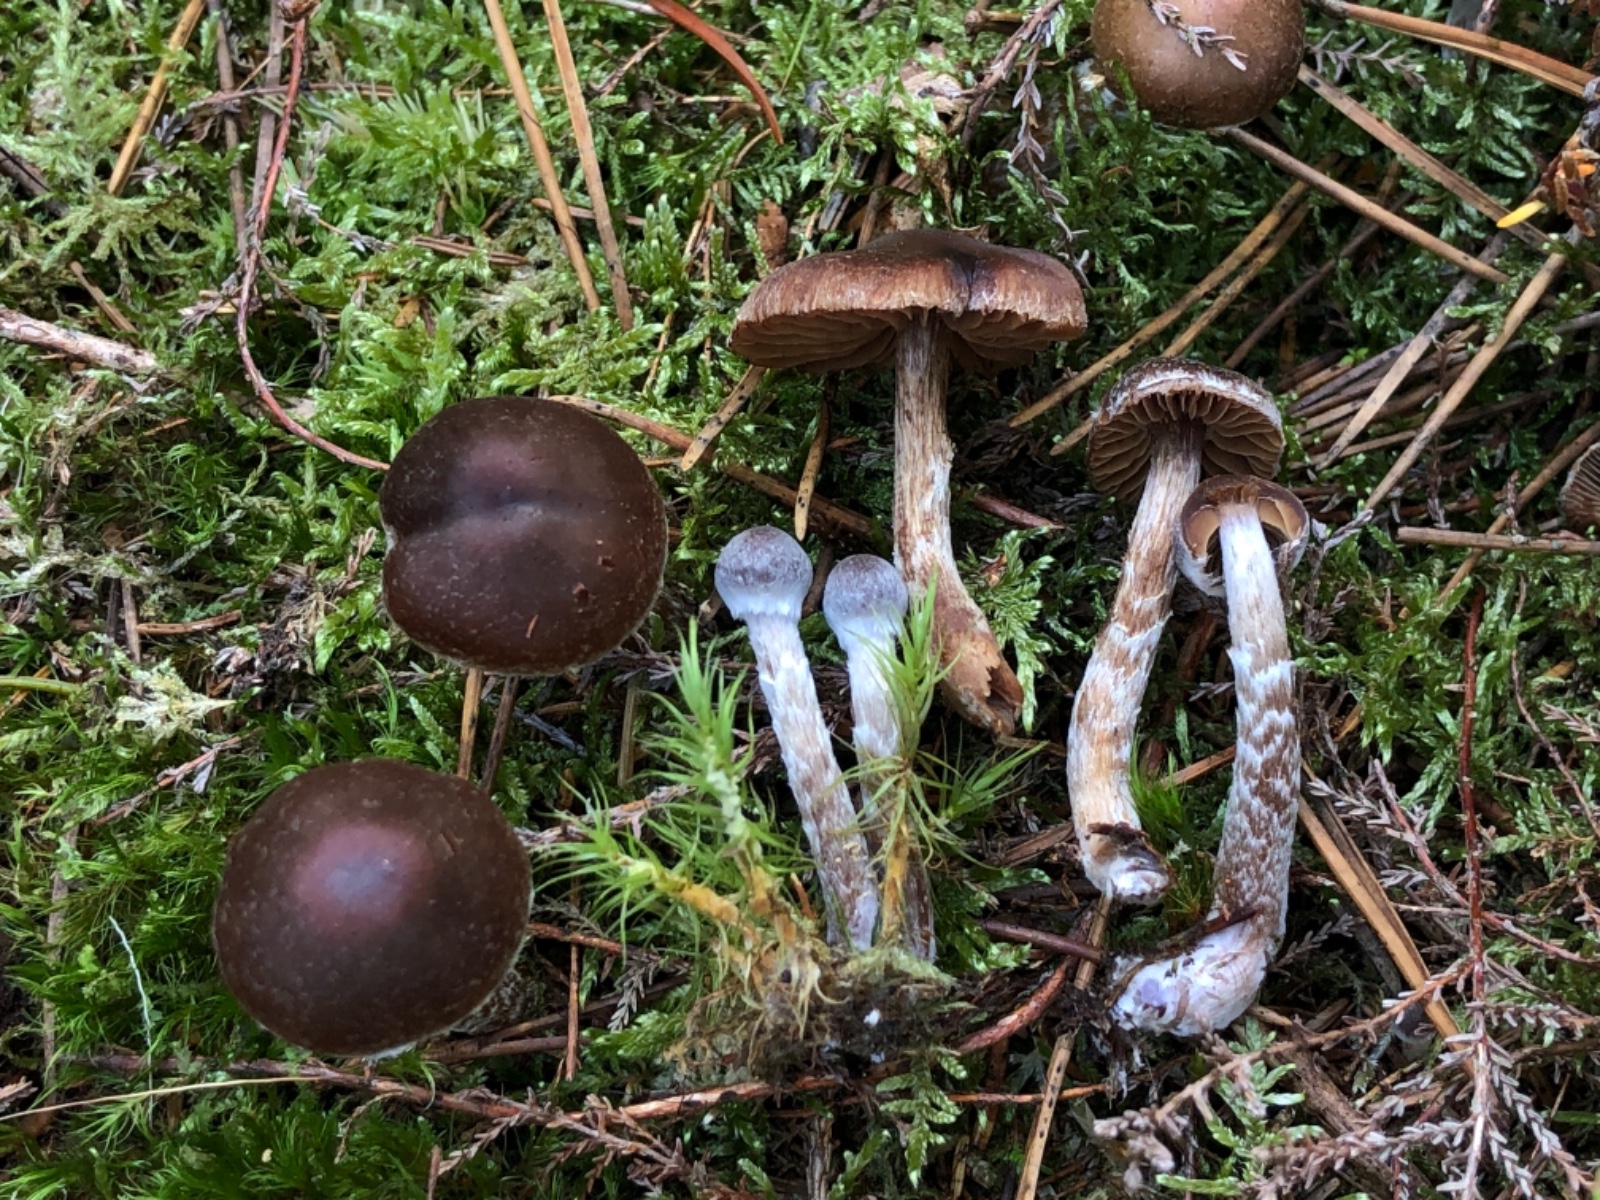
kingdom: Fungi
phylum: Basidiomycota
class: Agaricomycetes
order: Agaricales
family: Cortinariaceae
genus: Cortinarius
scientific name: Cortinarius lindstroemii
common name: Håkons slørhat
